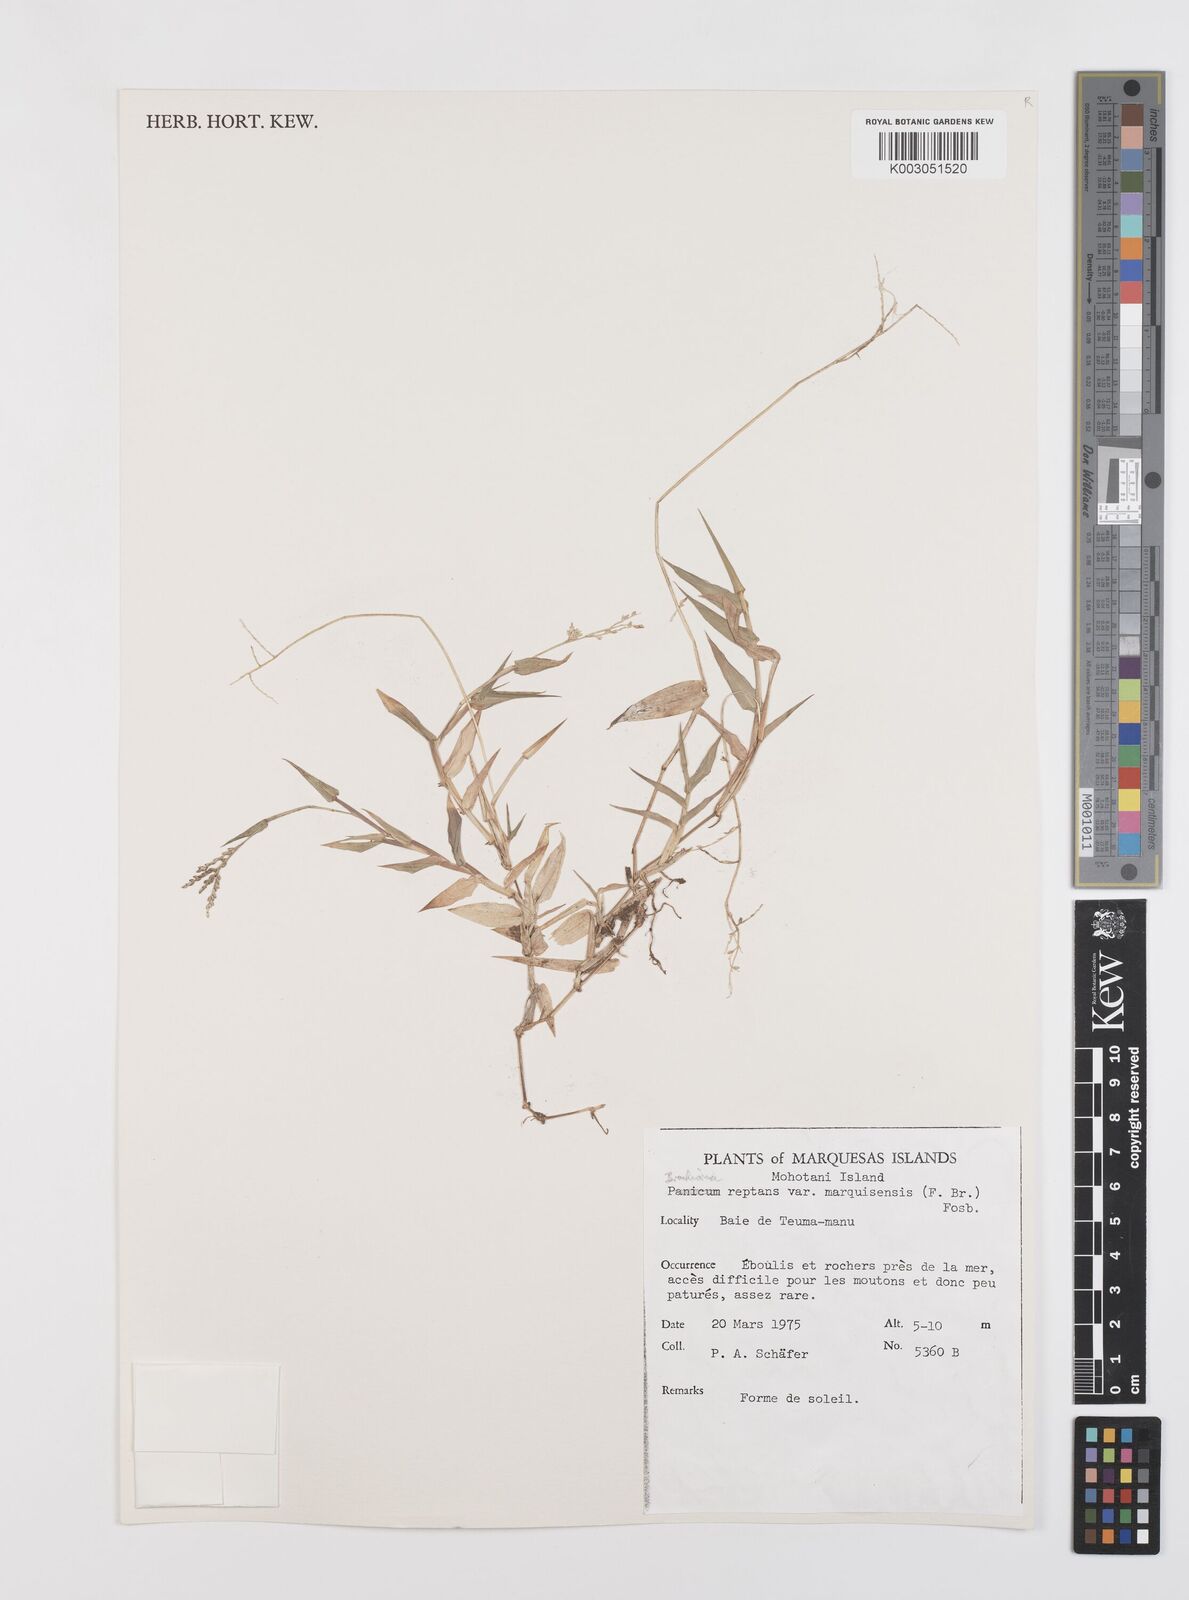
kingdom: Plantae
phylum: Tracheophyta
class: Liliopsida
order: Poales
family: Poaceae
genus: Urochloa
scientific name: Urochloa reptans
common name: Sprawling signalgrass
